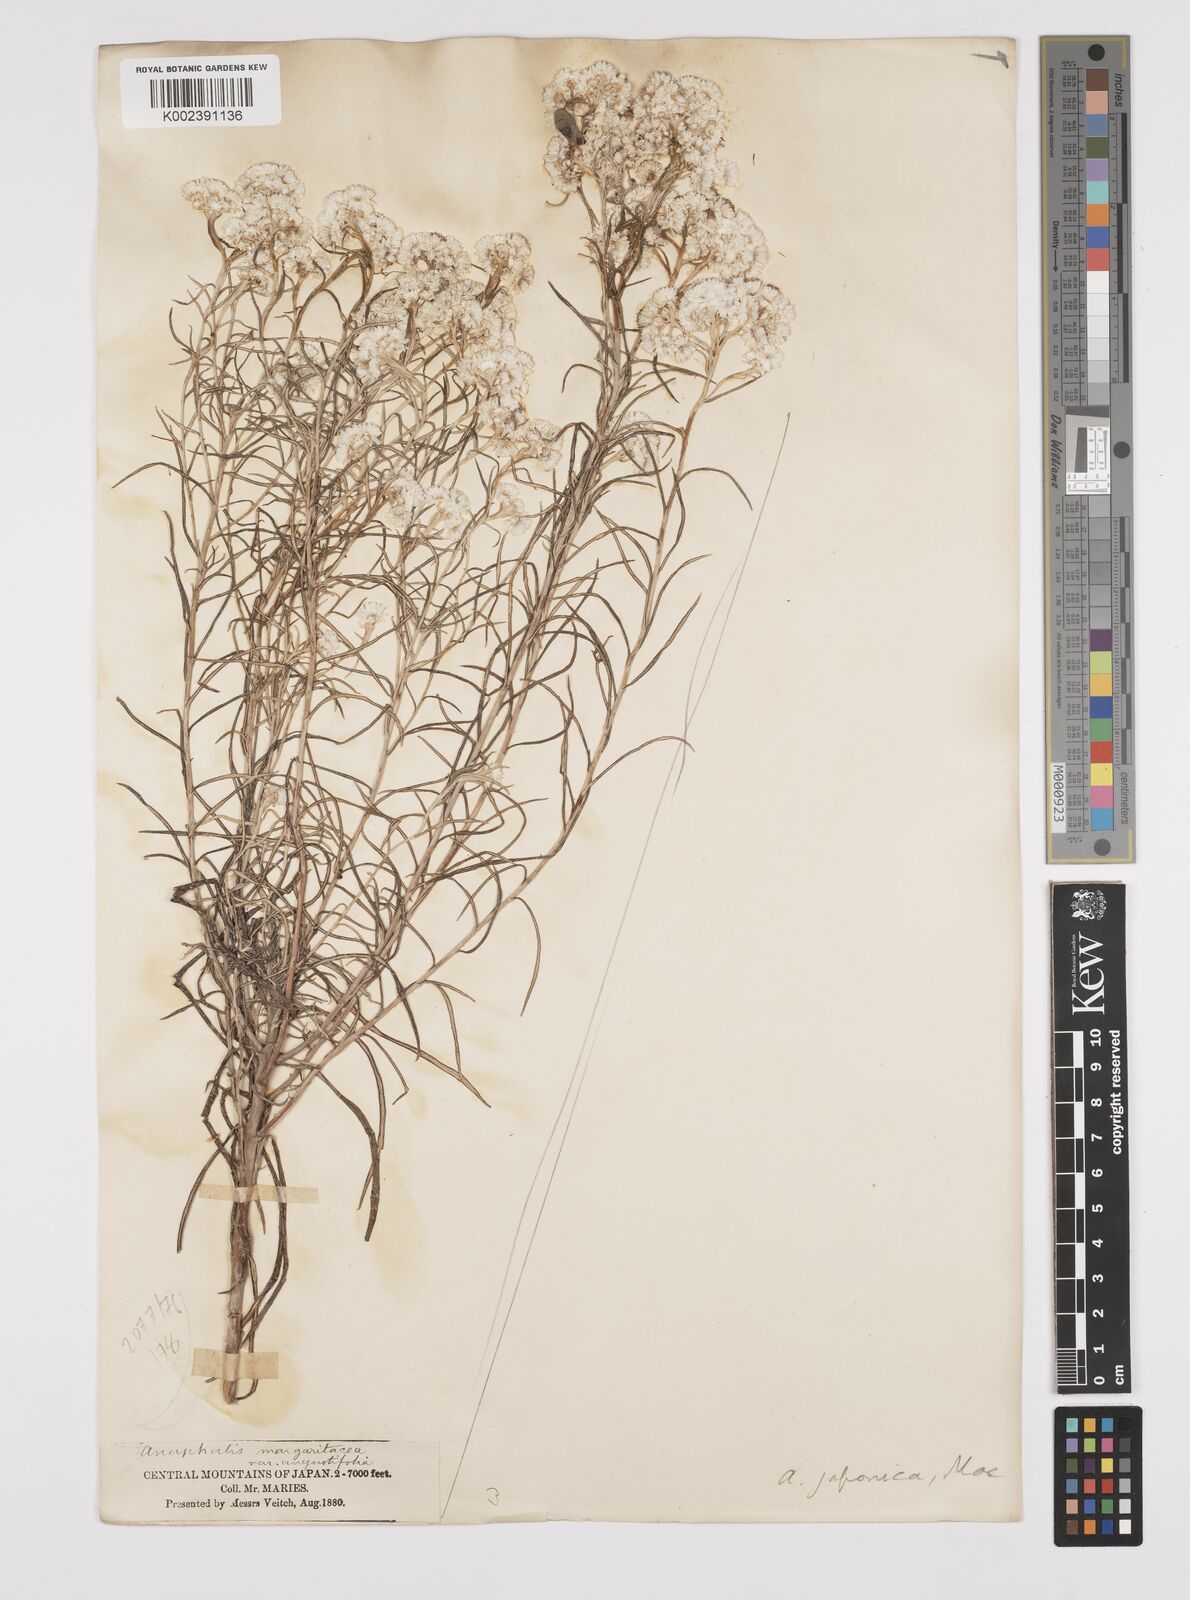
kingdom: Plantae
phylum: Tracheophyta
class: Magnoliopsida
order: Asterales
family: Asteraceae
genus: Anaphalis
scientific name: Anaphalis margaritacea
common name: Pearly everlasting
